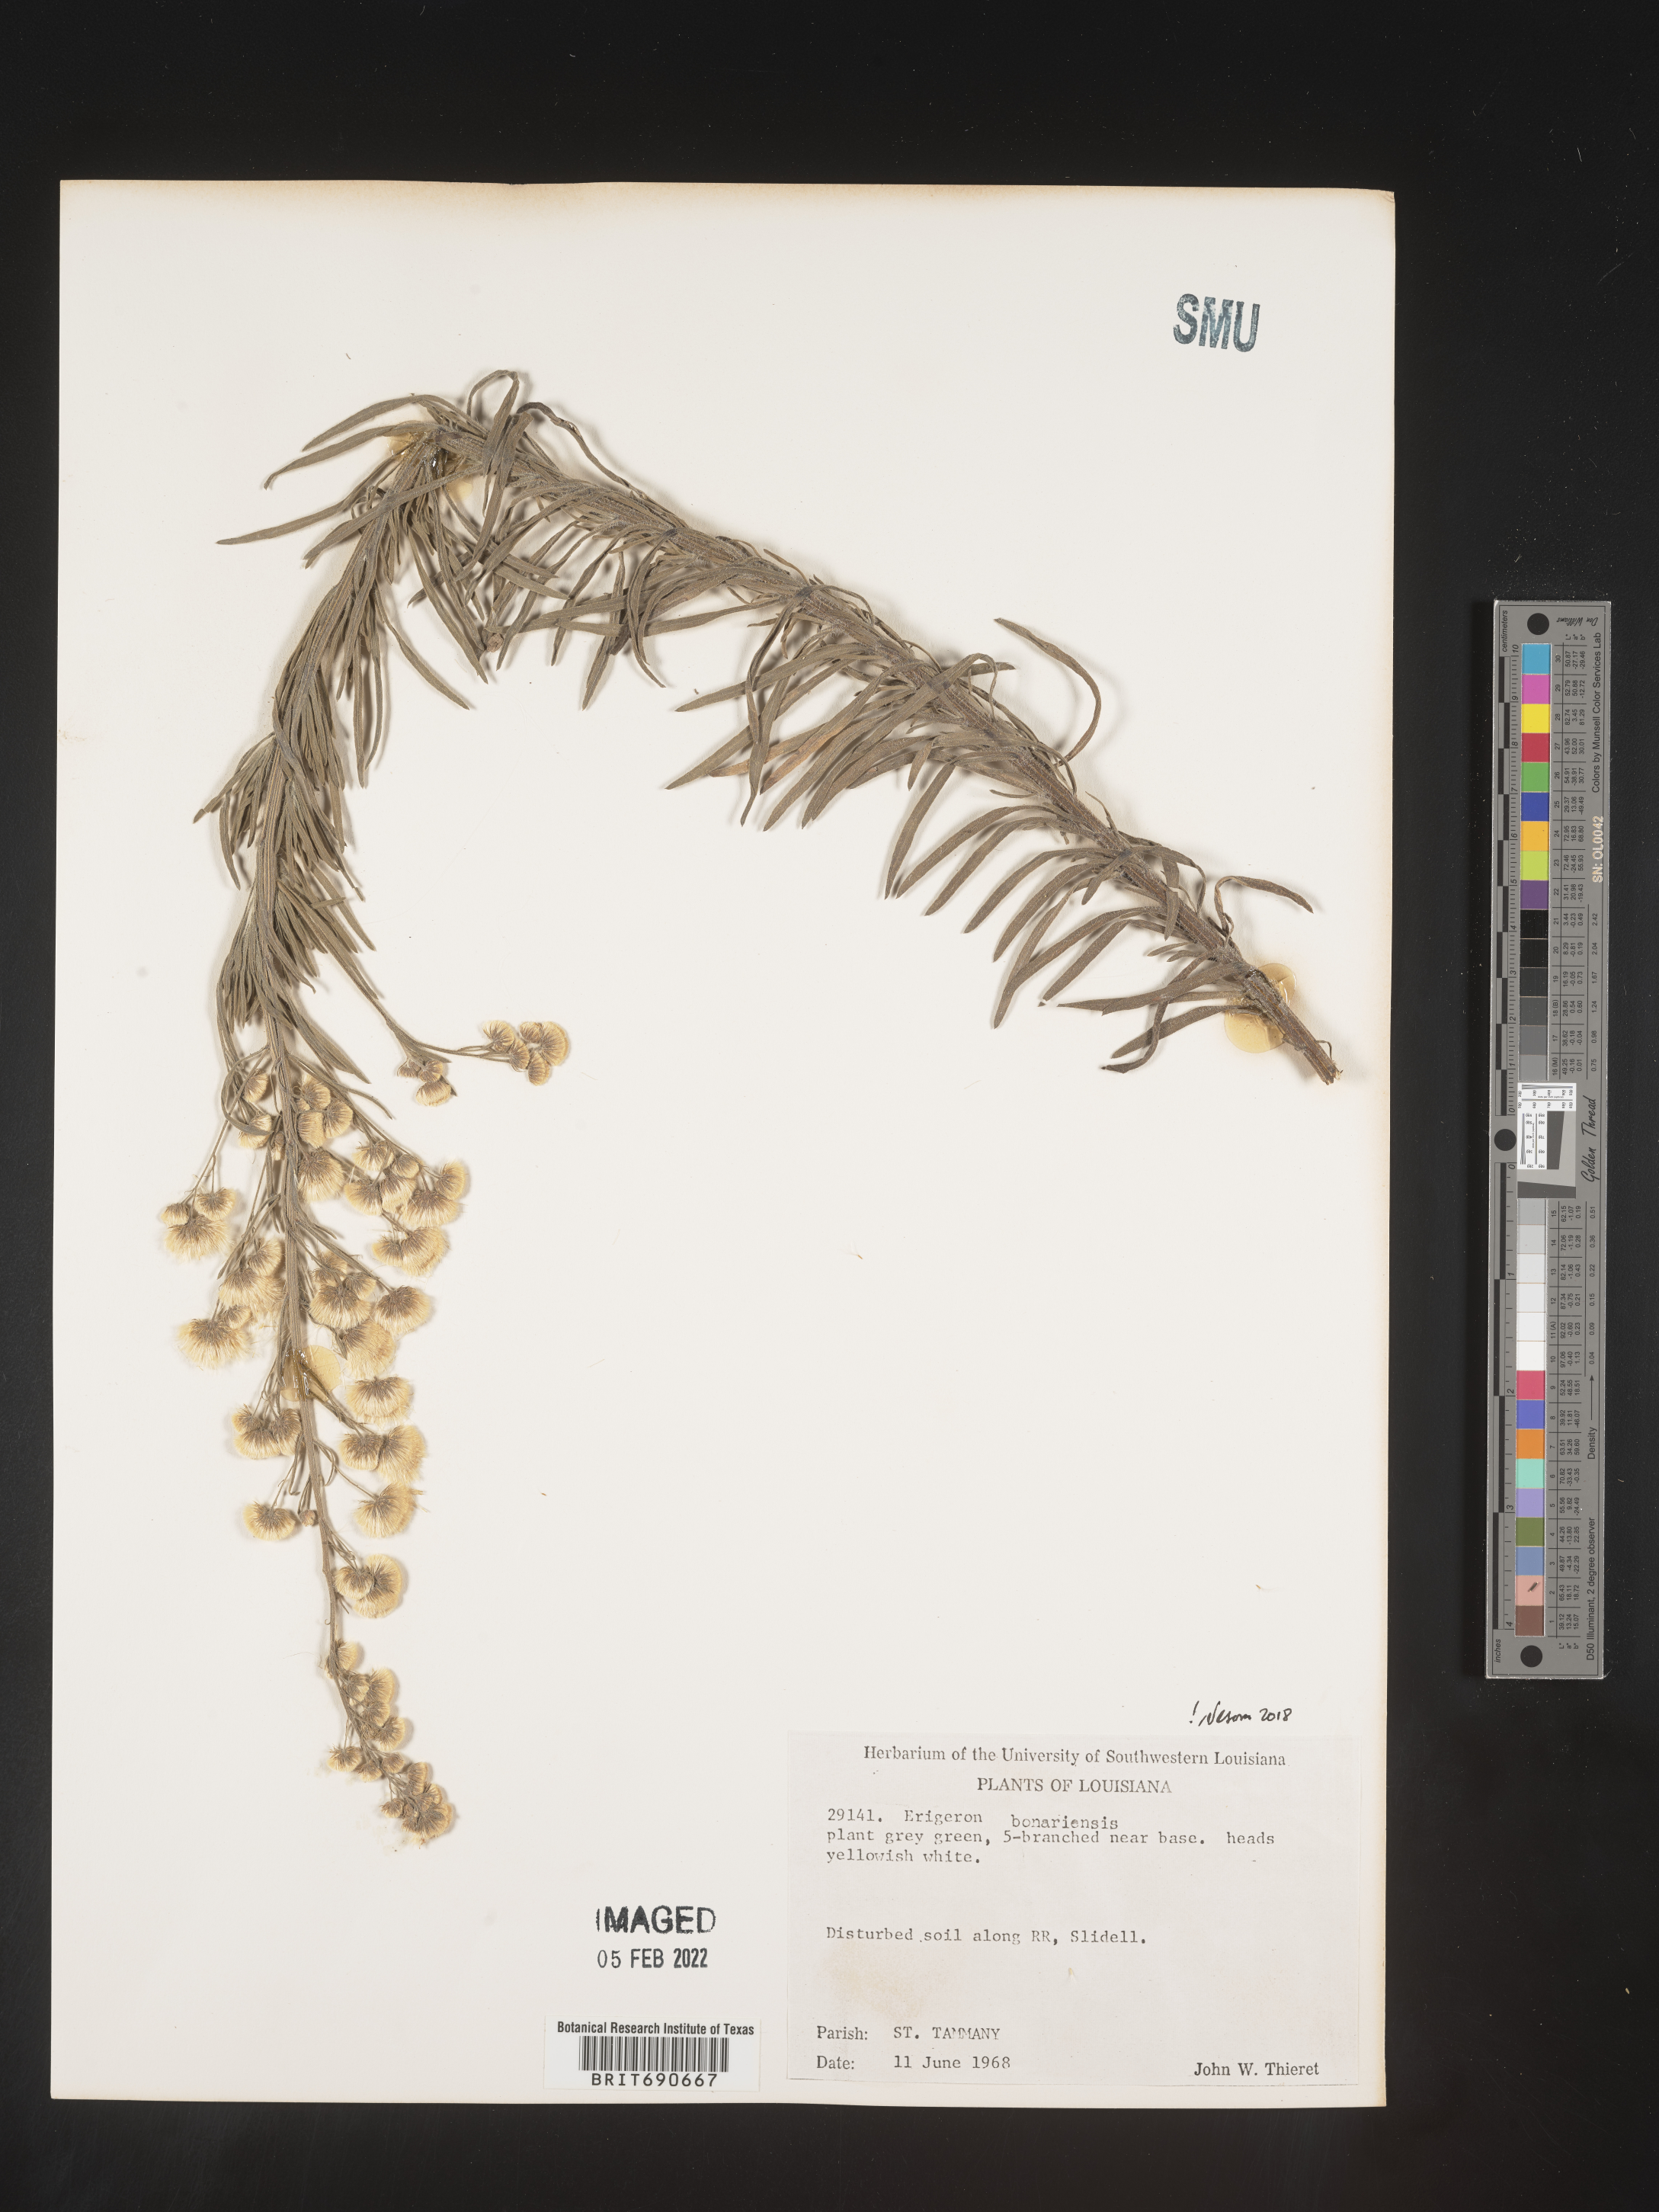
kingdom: Plantae
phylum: Tracheophyta
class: Magnoliopsida
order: Asterales
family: Asteraceae
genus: Erigeron
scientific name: Erigeron bonariensis
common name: Argentine fleabane
